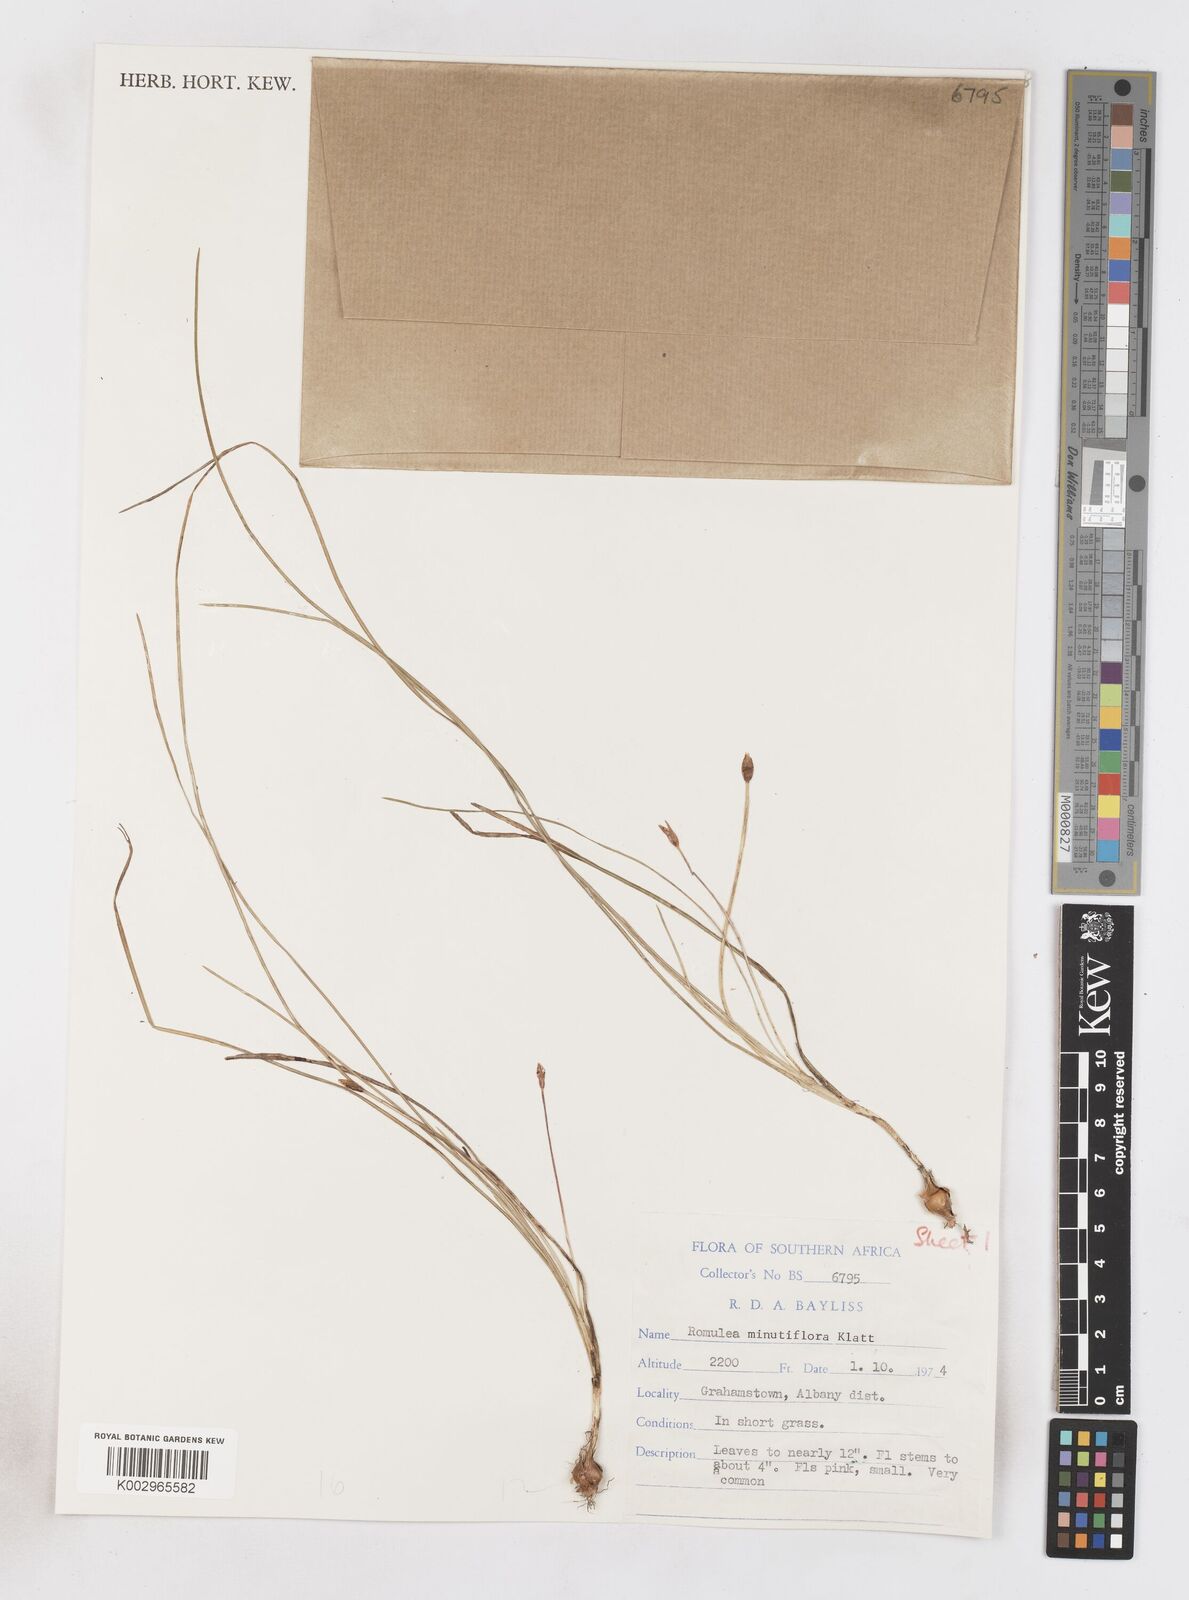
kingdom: Plantae
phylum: Tracheophyta
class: Liliopsida
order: Asparagales
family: Iridaceae
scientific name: Iridaceae
